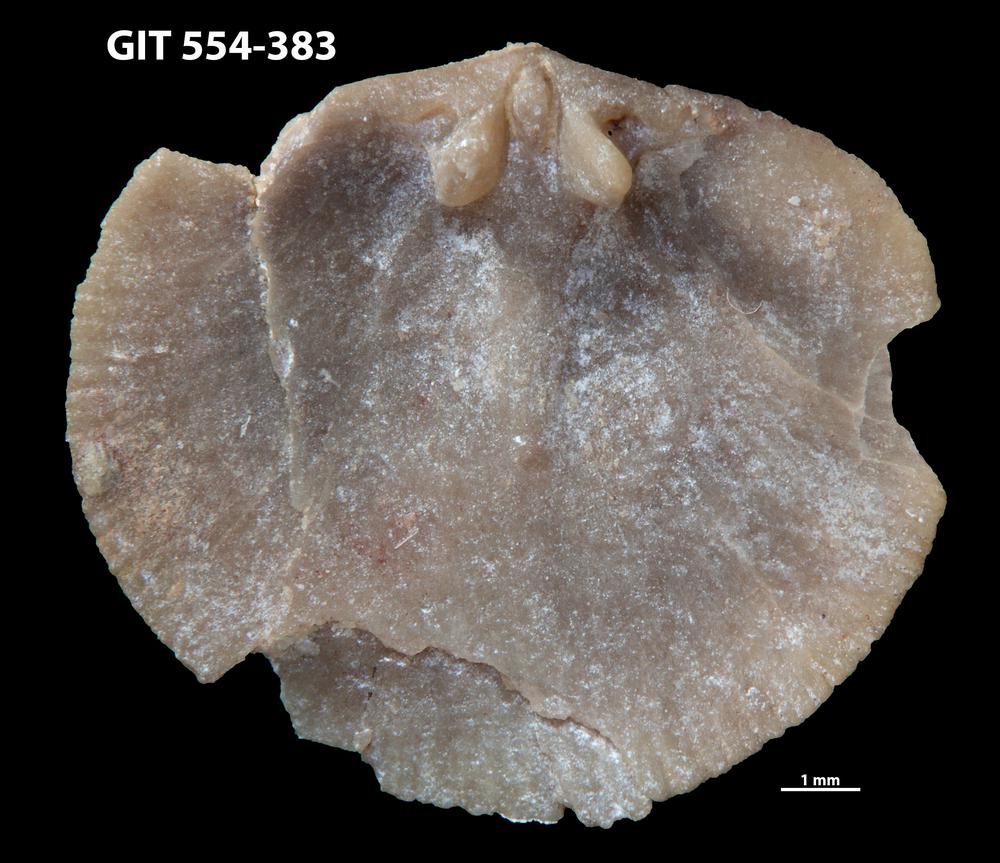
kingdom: Animalia
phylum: Brachiopoda
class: Rhynchonellata
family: Dalmanellidae
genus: Isorthis
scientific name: Isorthis Onniella mediocra
